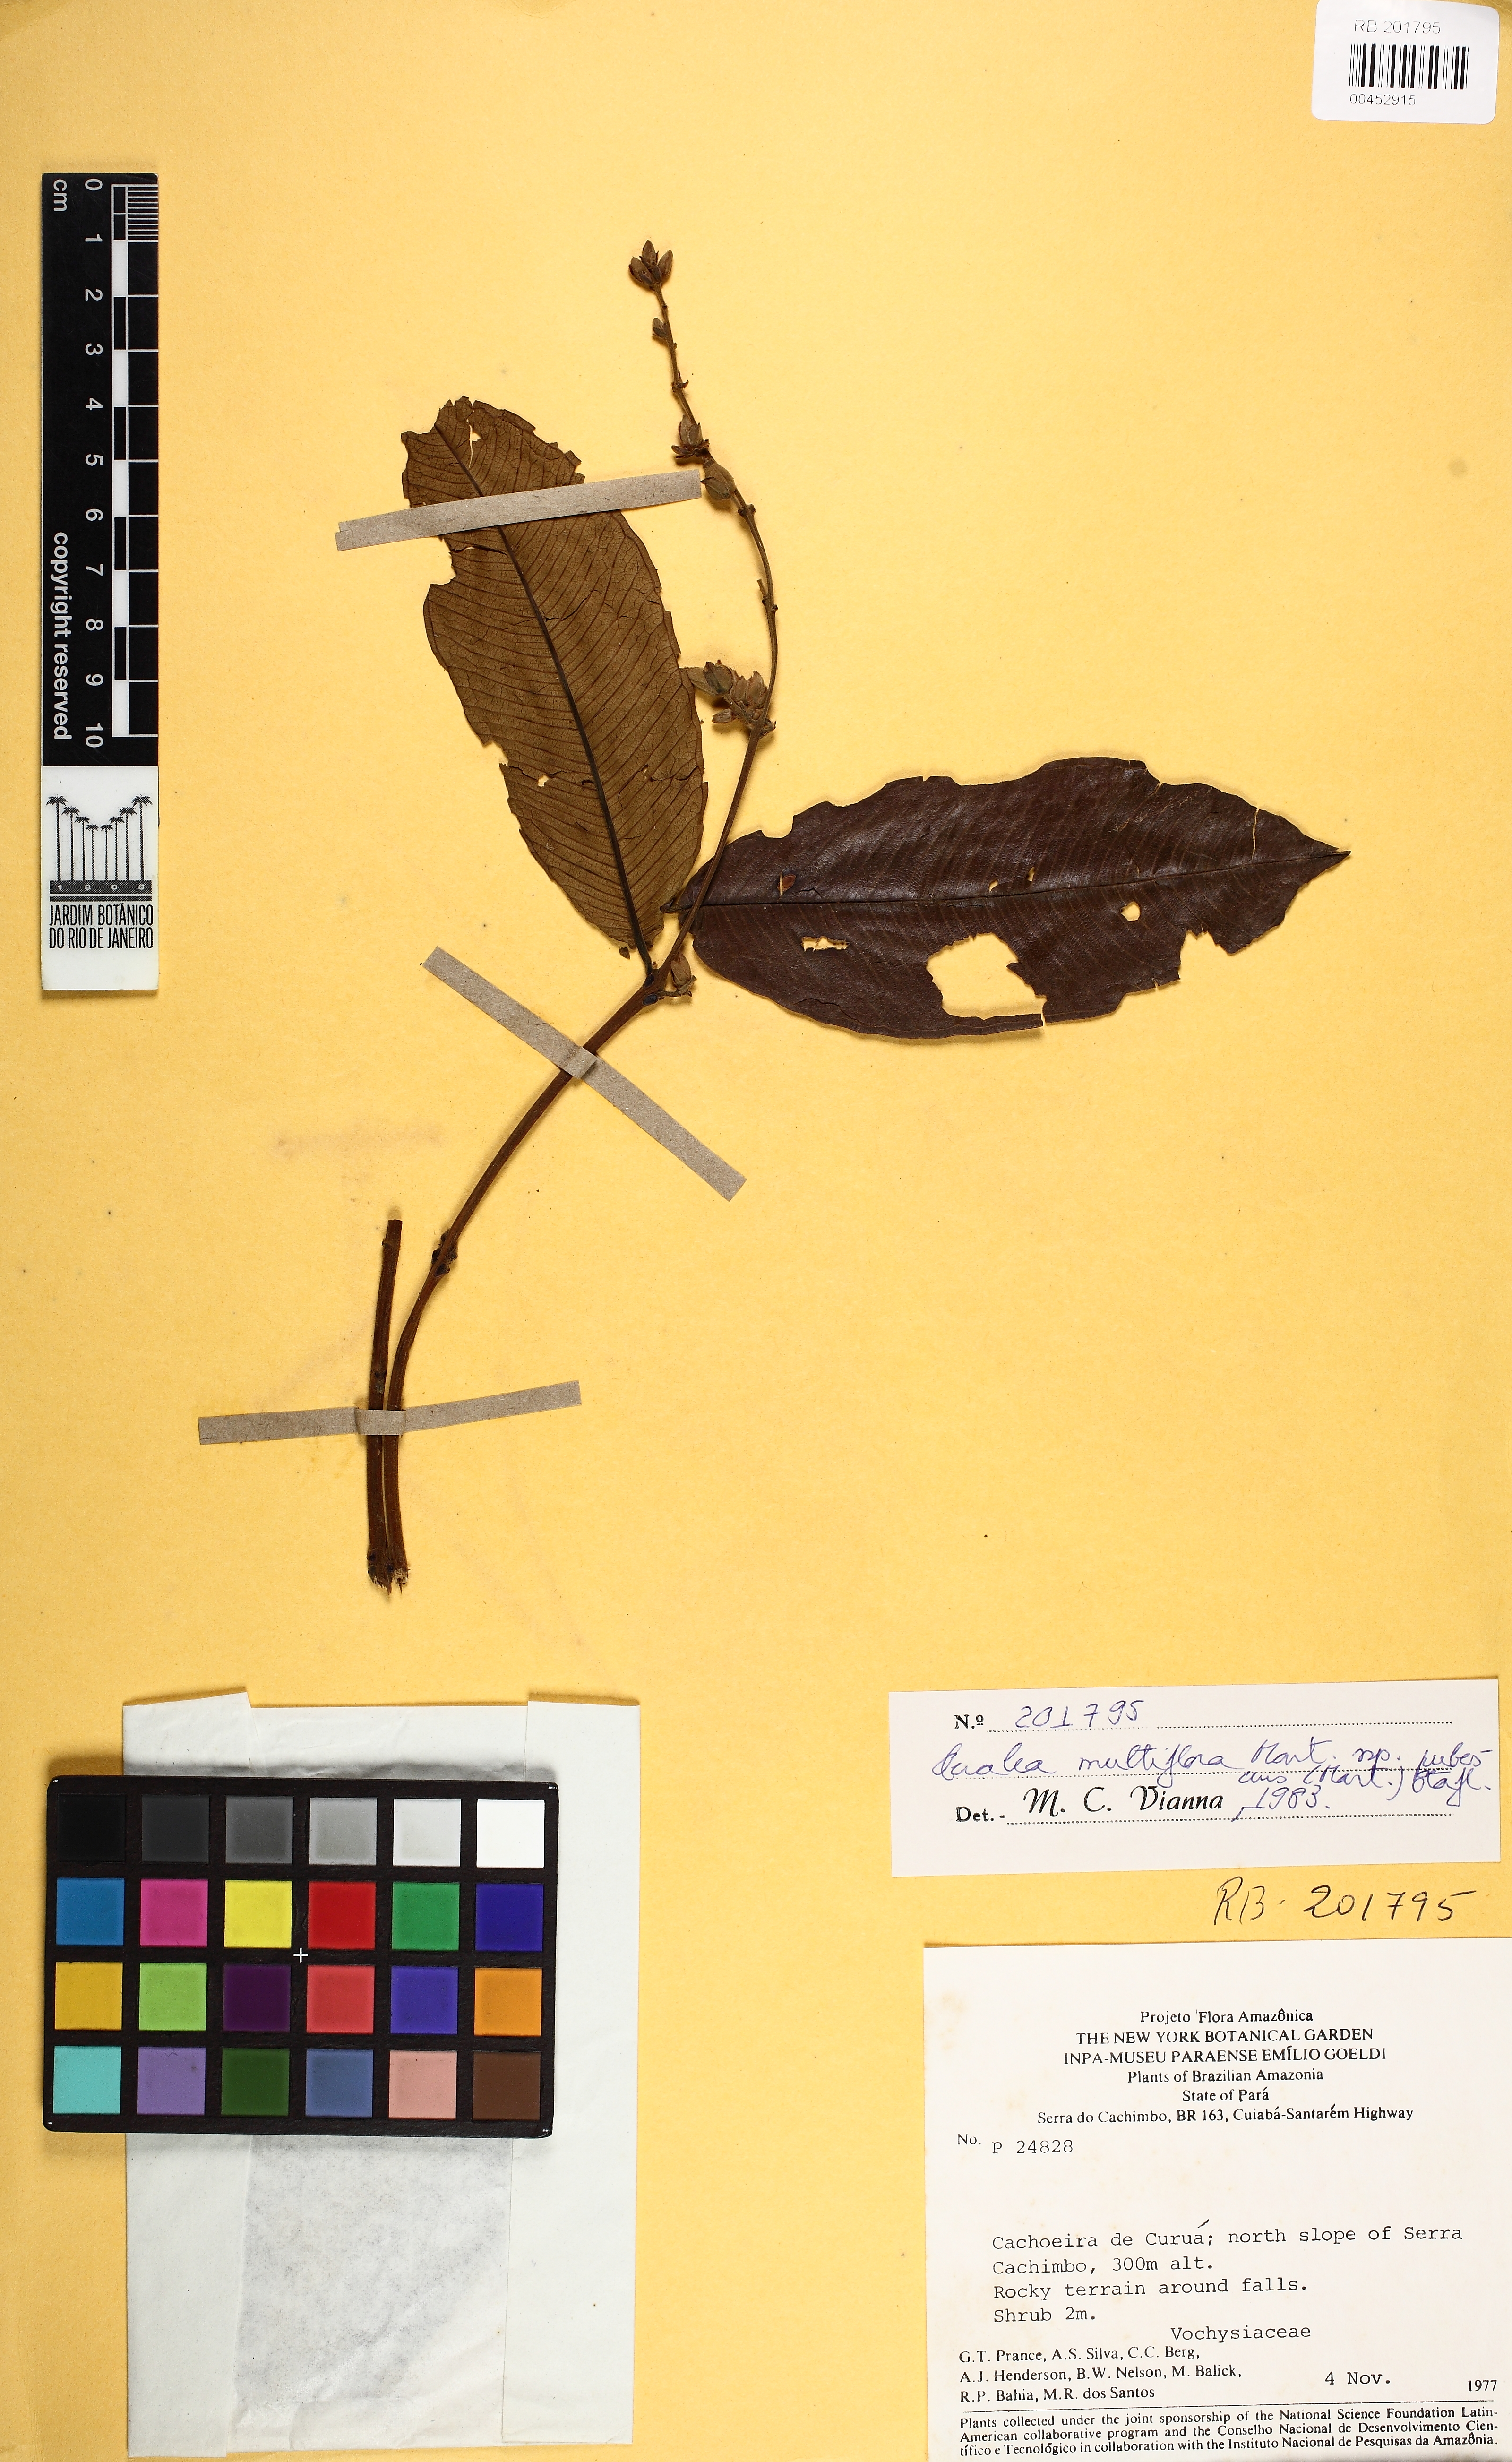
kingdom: Plantae
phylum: Tracheophyta
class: Magnoliopsida
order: Myrtales
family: Vochysiaceae
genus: Qualea
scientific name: Qualea multiflora
